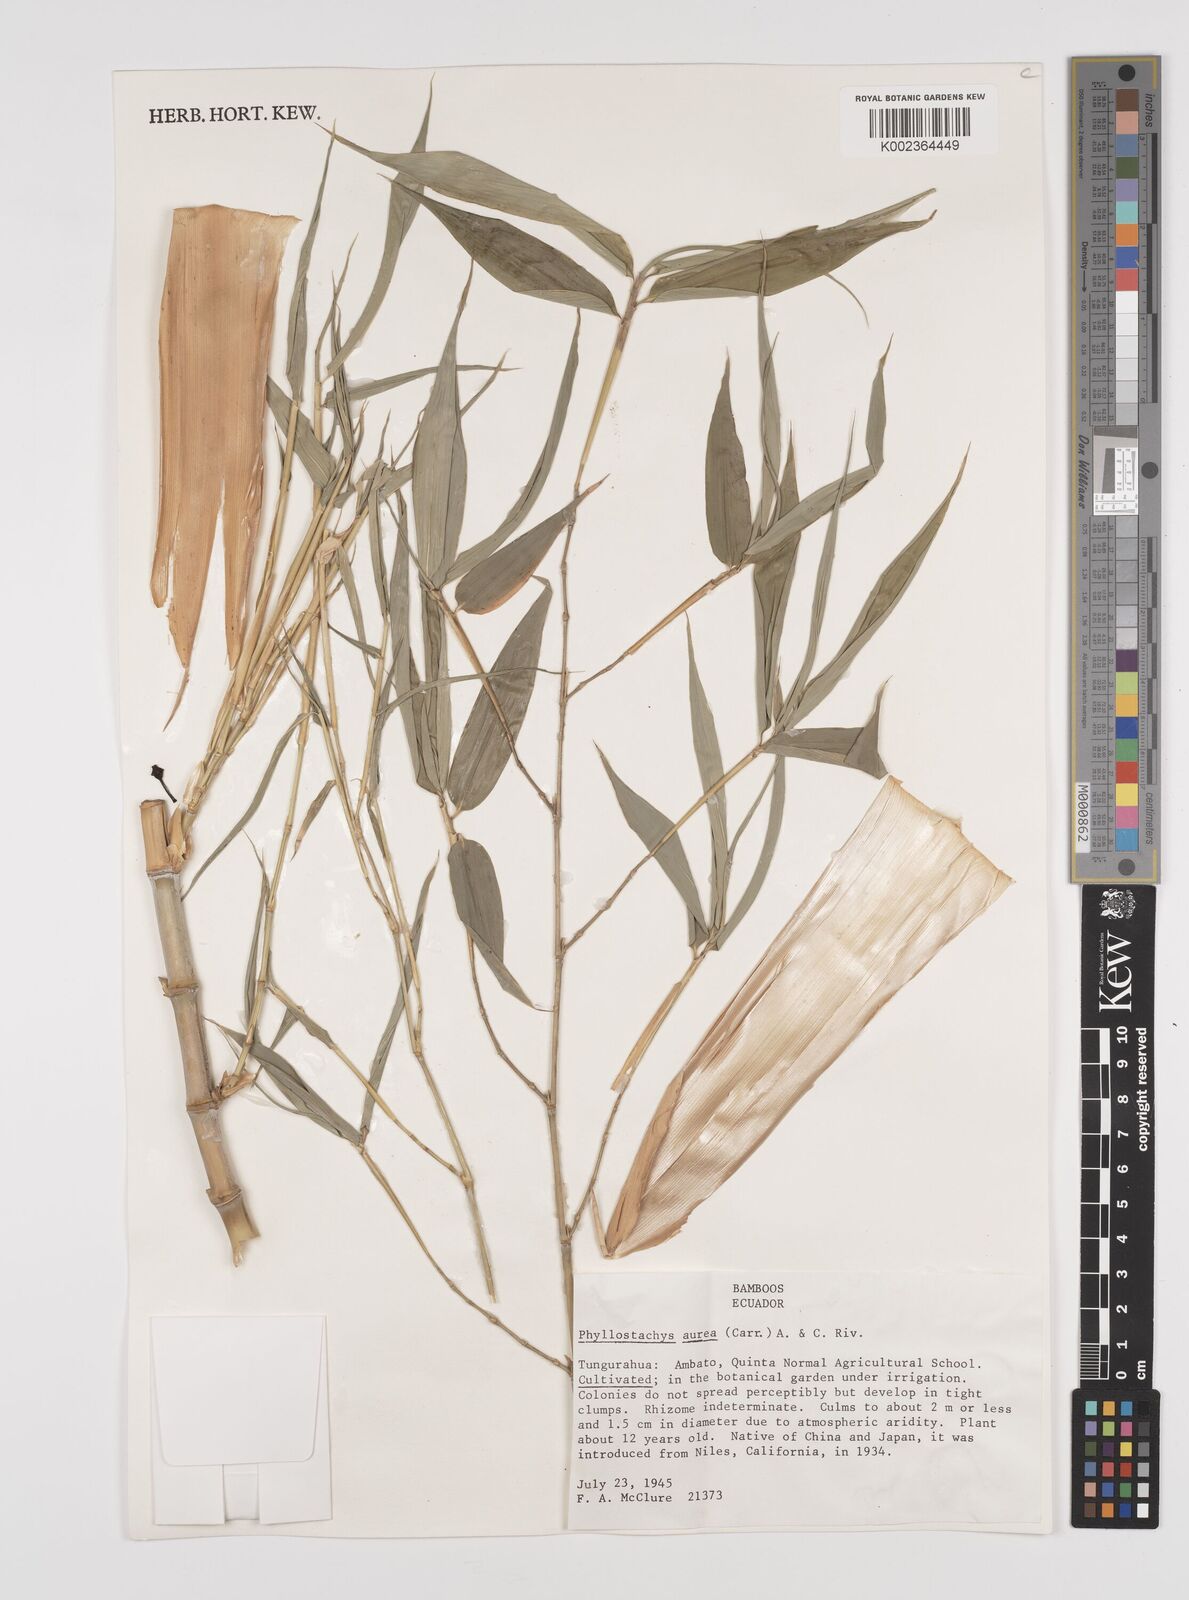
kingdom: Plantae
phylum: Tracheophyta
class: Liliopsida
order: Poales
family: Poaceae
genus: Phyllostachys
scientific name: Phyllostachys aurea
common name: Golden bamboo
